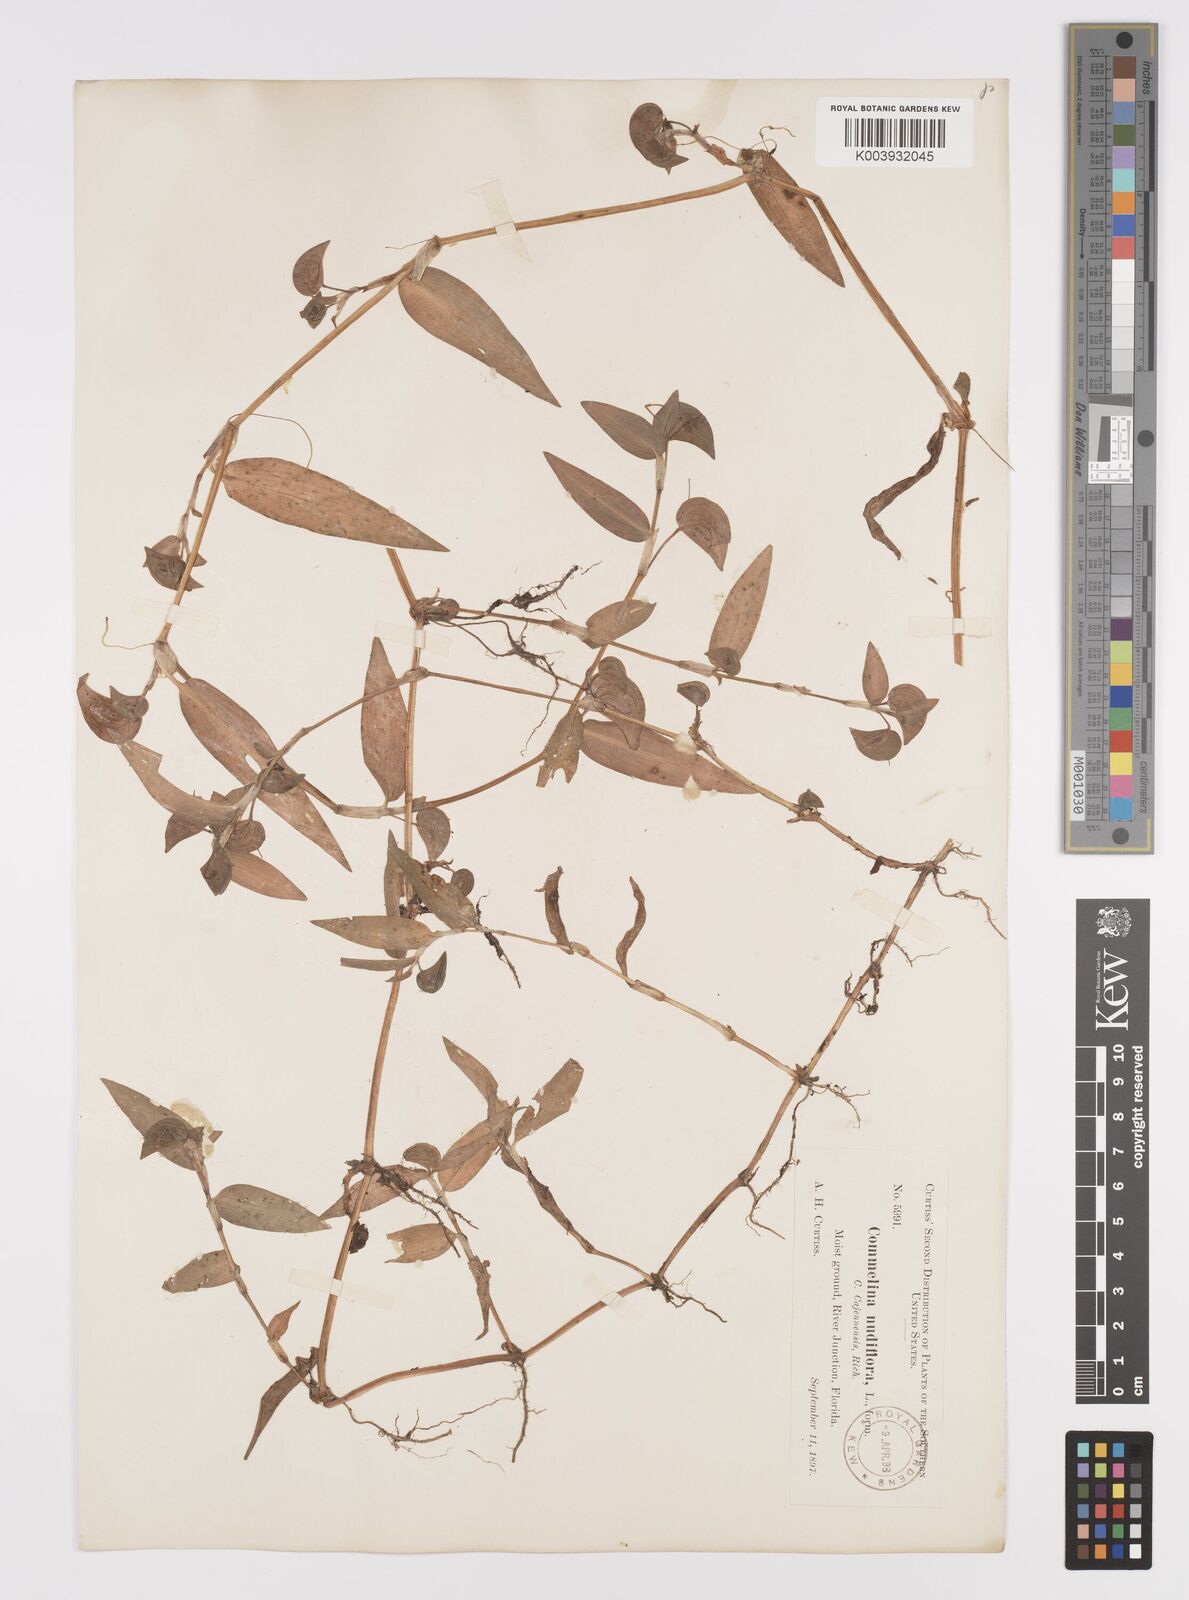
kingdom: Plantae
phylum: Tracheophyta
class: Liliopsida
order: Commelinales
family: Commelinaceae
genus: Murdannia
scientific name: Murdannia nudiflora
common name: Nakedstem dewflower
